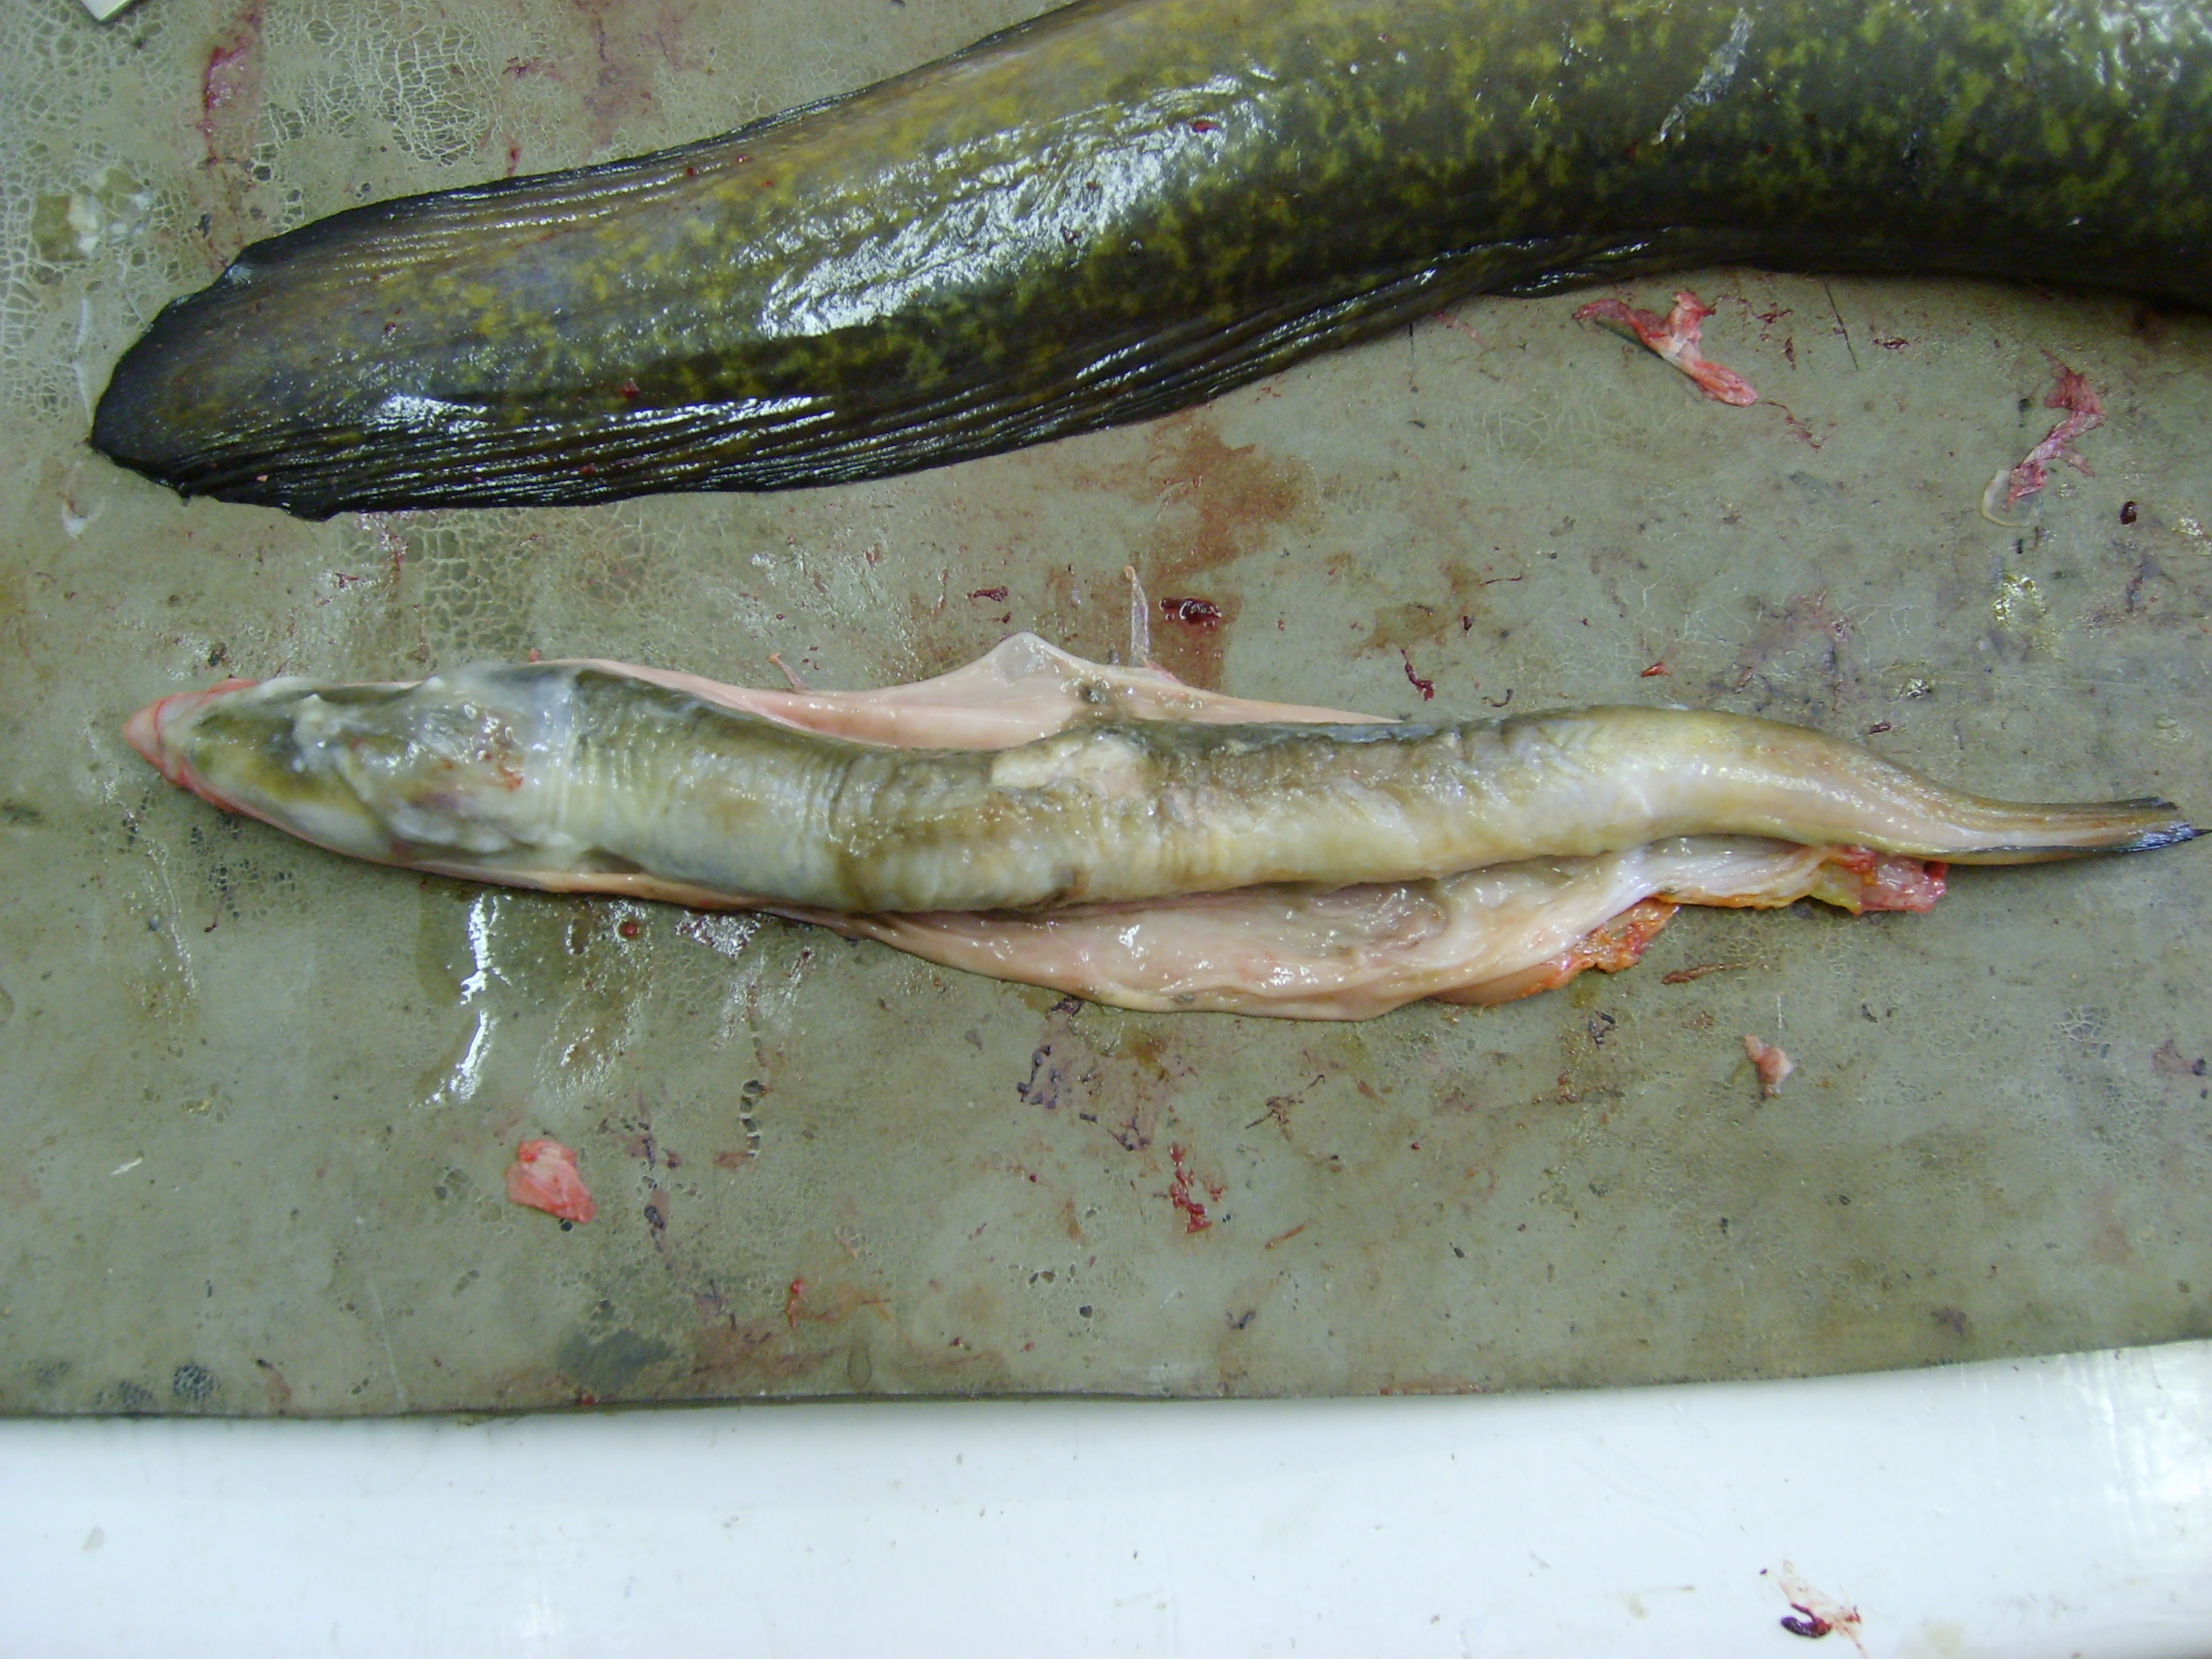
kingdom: Animalia
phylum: Chordata
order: Anguilliformes
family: Anguillidae
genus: Anguilla
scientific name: Anguilla mossambica
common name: African longfin eel
